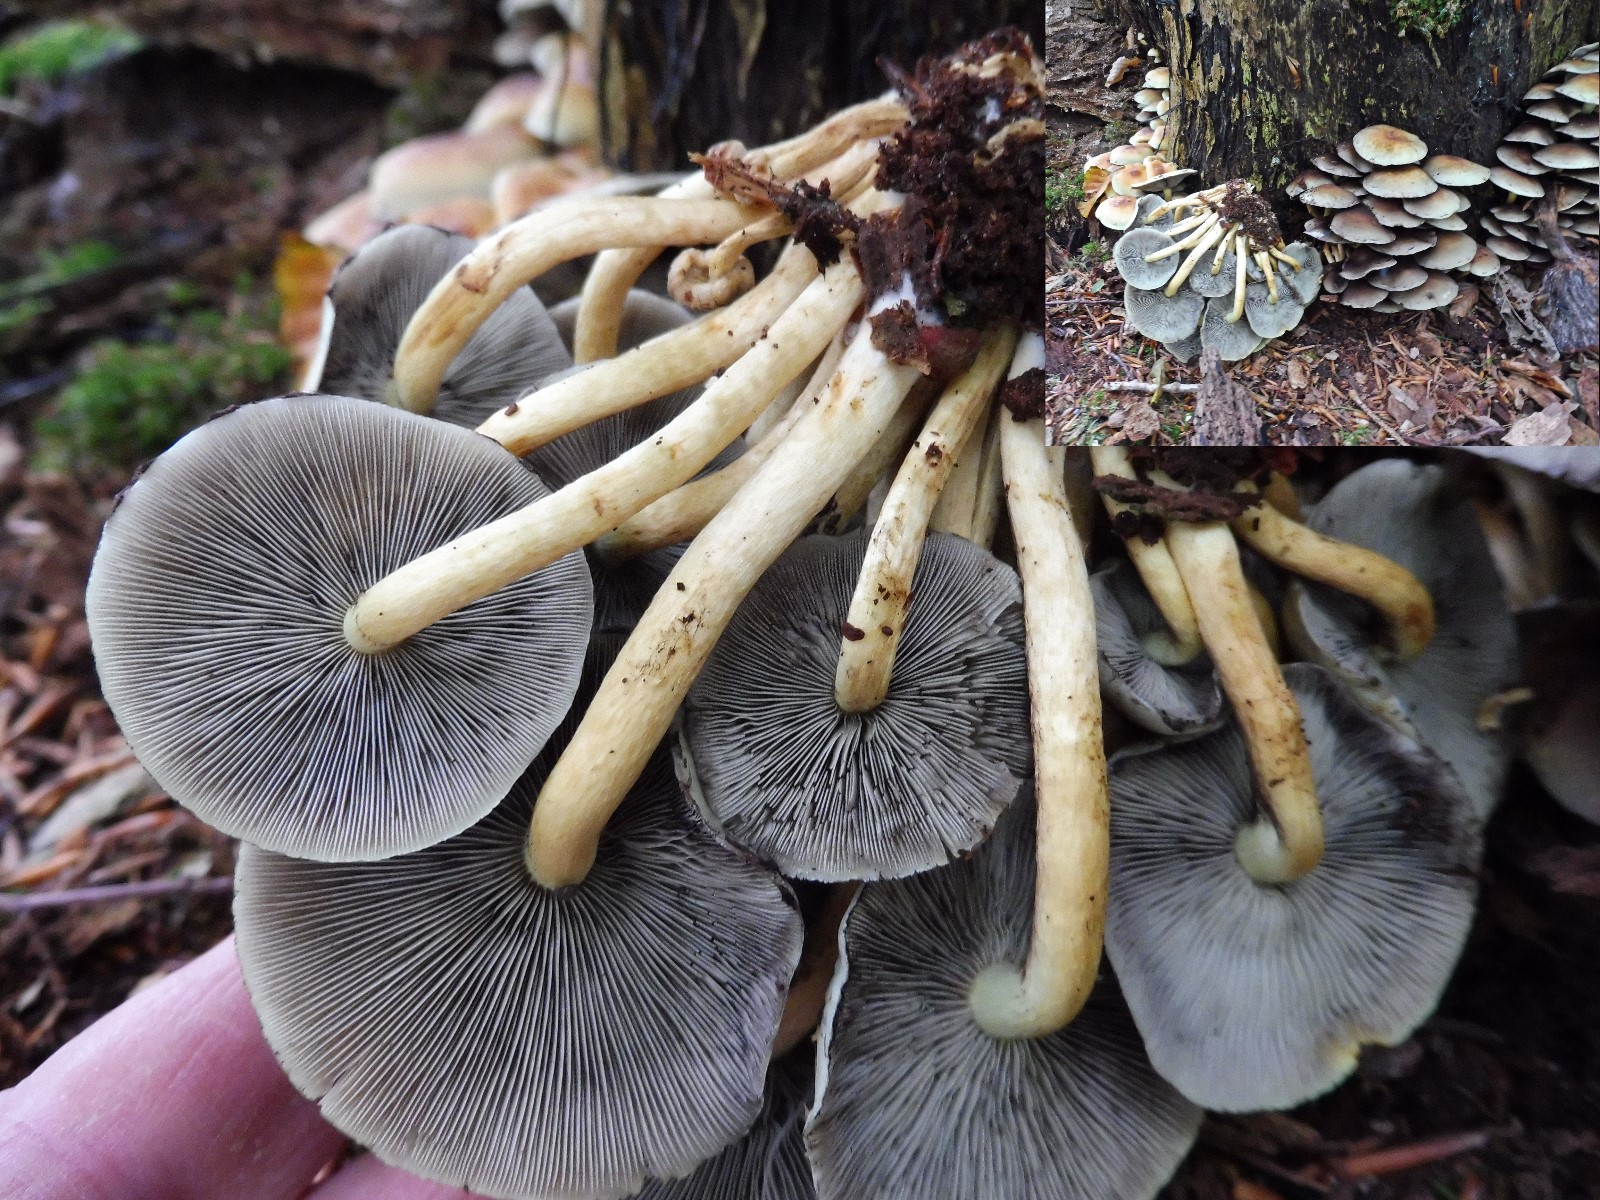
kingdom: Fungi
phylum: Basidiomycota
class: Agaricomycetes
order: Agaricales
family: Strophariaceae
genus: Hypholoma
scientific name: Hypholoma fasciculare
